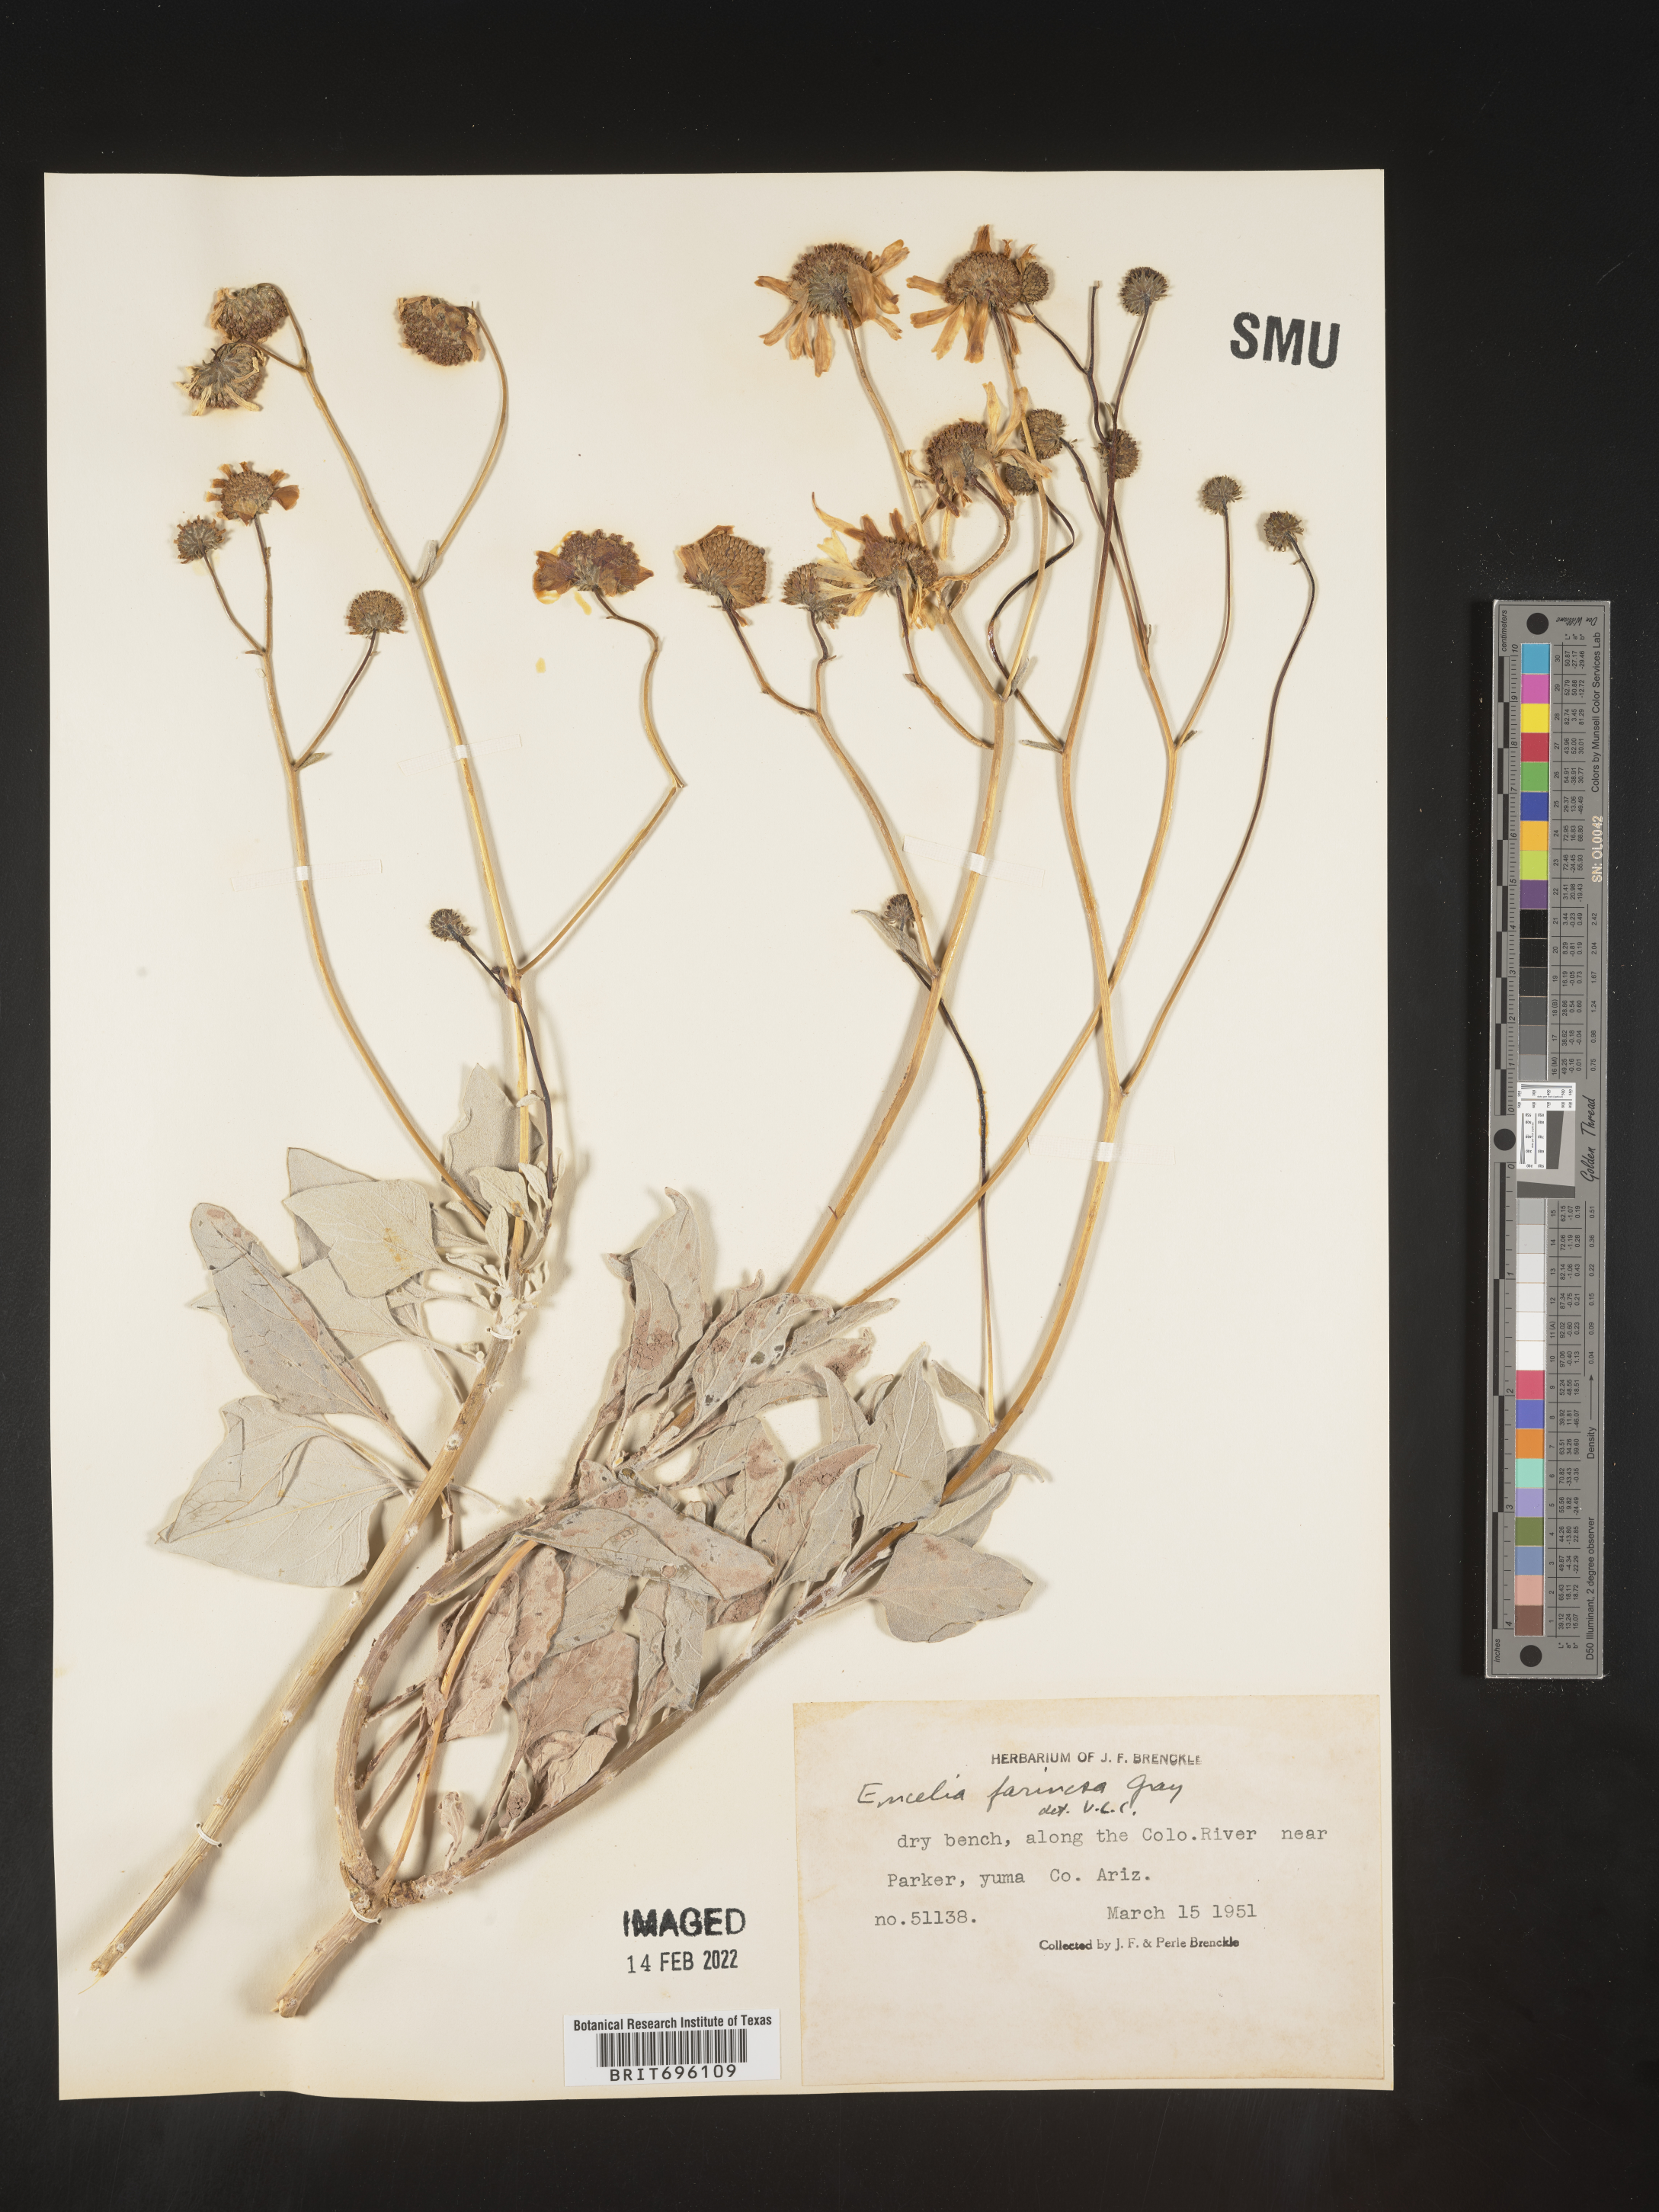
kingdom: Plantae
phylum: Tracheophyta
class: Magnoliopsida
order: Asterales
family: Asteraceae
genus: Encelia
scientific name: Encelia farinosa
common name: Brittlebush
